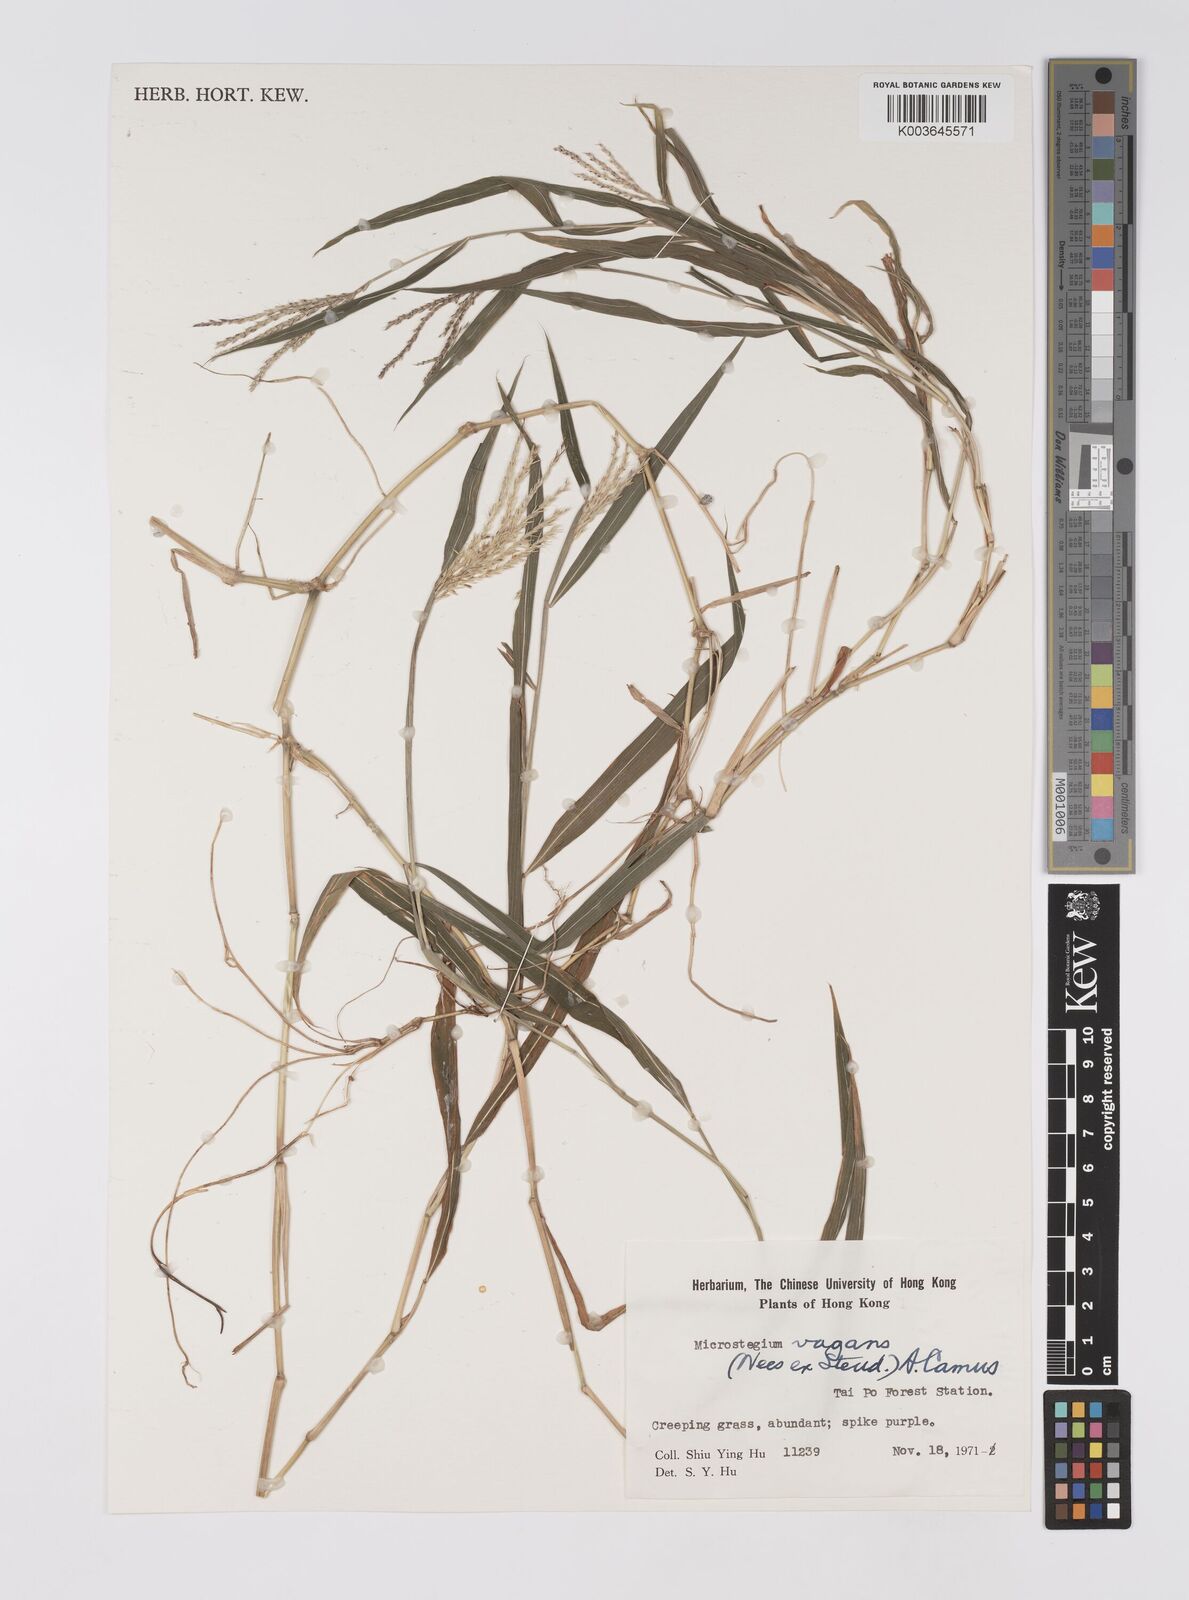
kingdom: Plantae
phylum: Tracheophyta
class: Liliopsida
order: Poales
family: Poaceae
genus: Microstegium
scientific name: Microstegium fasciculatum
